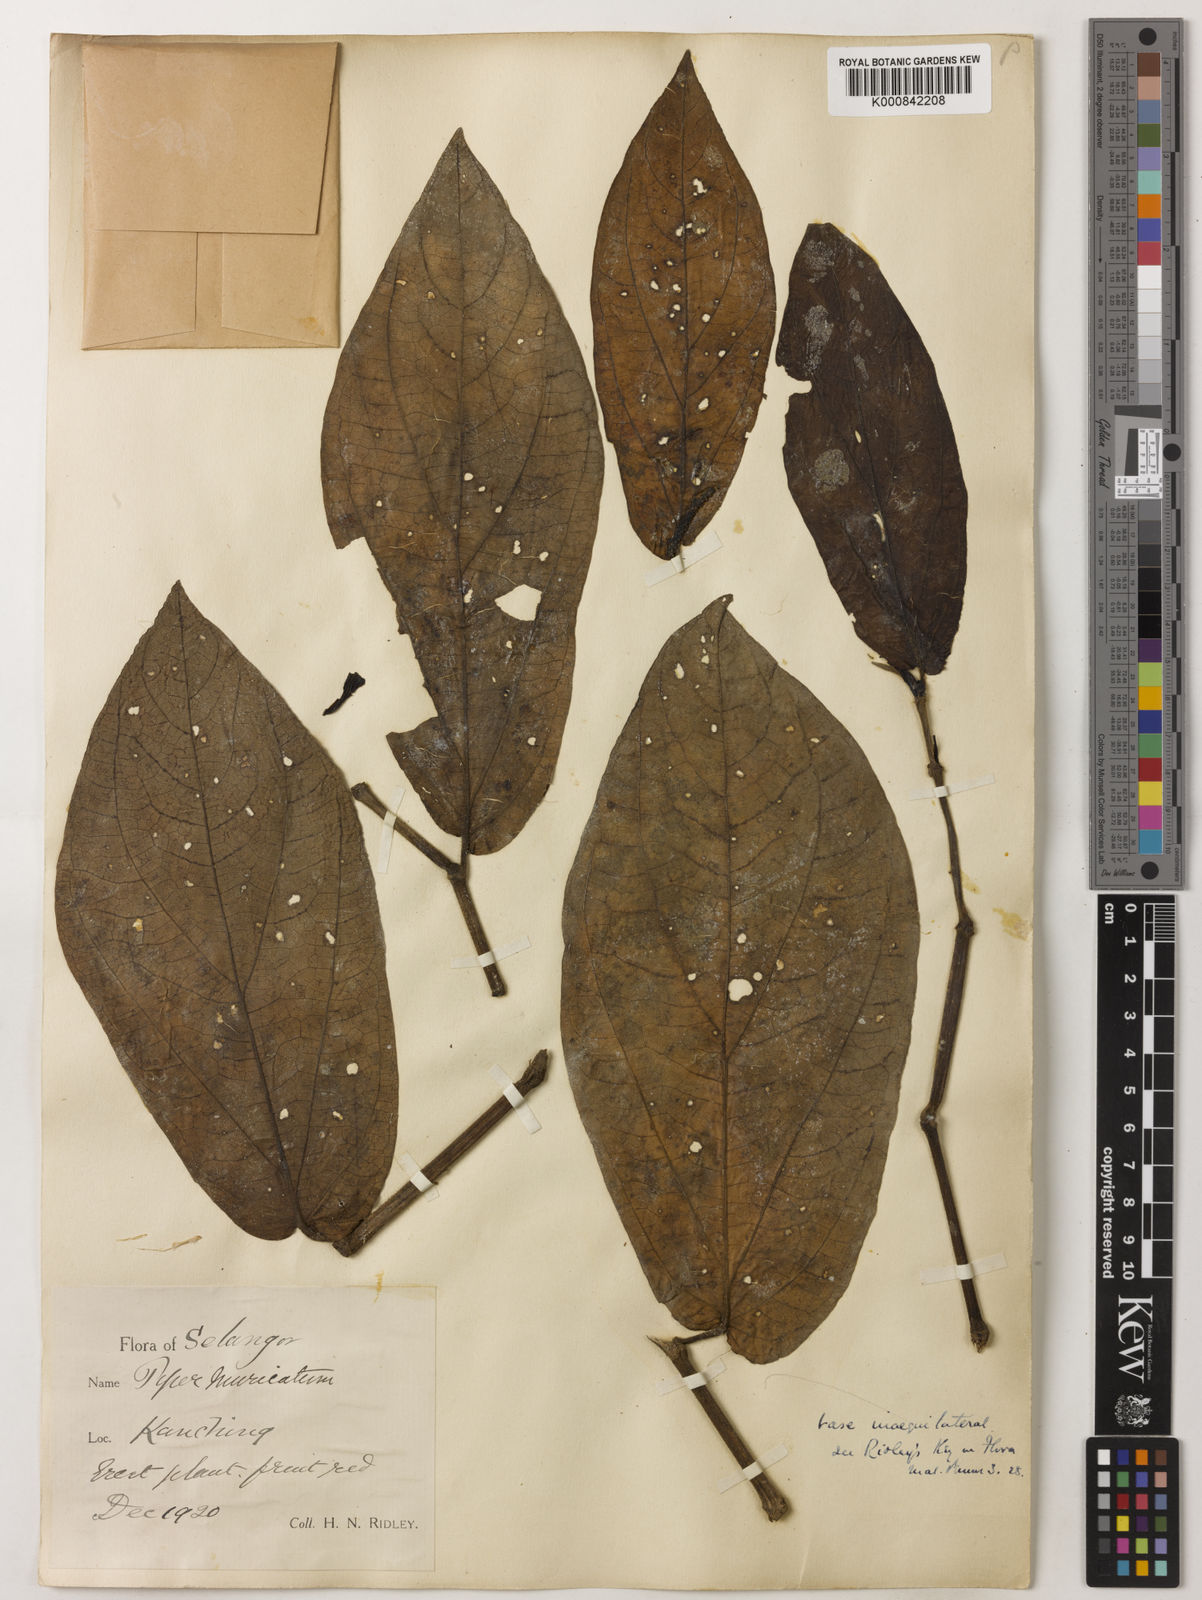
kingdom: Plantae
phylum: Tracheophyta
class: Magnoliopsida
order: Piperales
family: Piperaceae
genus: Piper
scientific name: Piper muricatum
